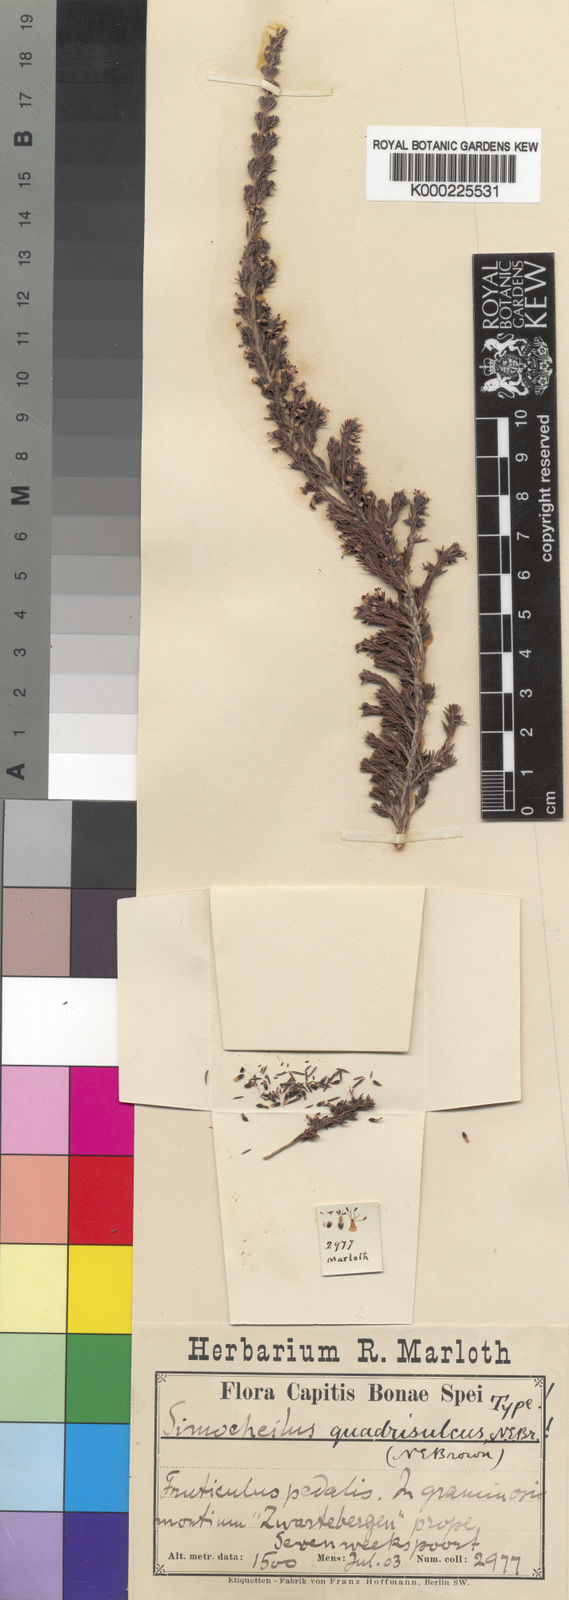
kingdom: Plantae
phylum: Tracheophyta
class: Magnoliopsida
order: Ericales
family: Ericaceae
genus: Erica
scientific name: Erica phaeocarpa
